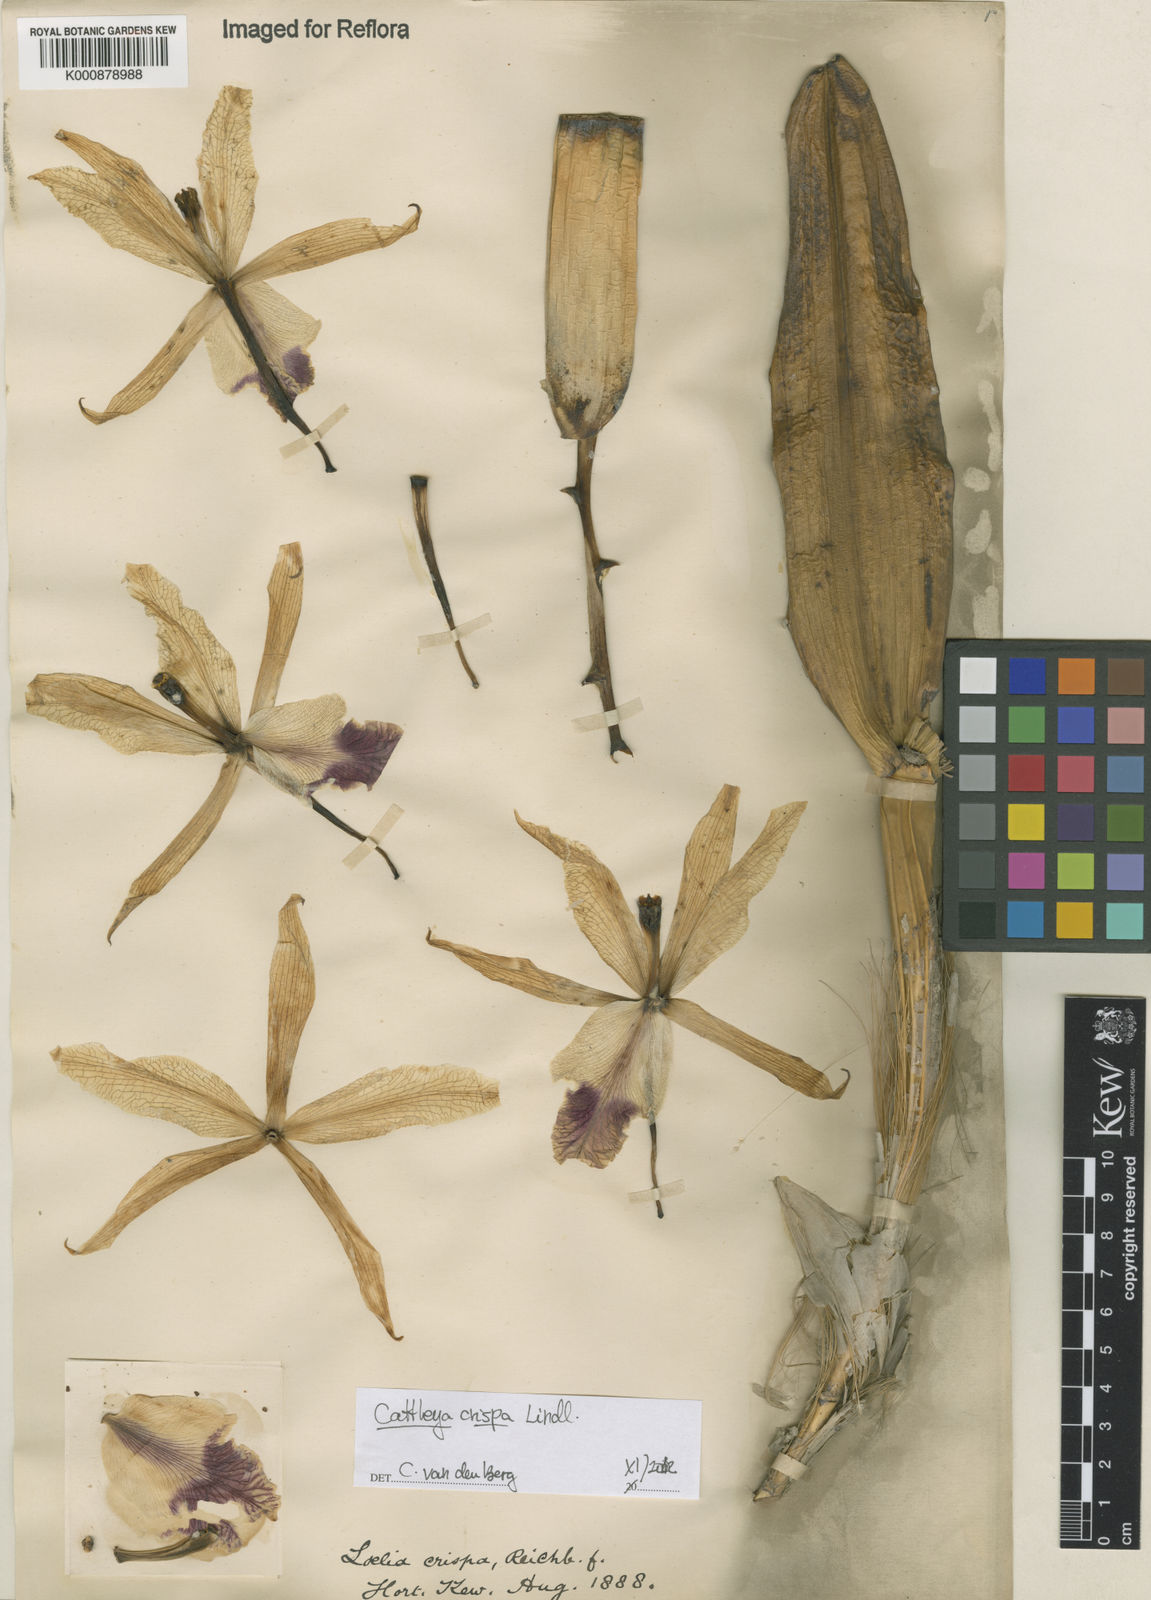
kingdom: Plantae
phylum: Tracheophyta
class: Liliopsida
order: Asparagales
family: Orchidaceae
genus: Cattleya
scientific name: Cattleya crispata
